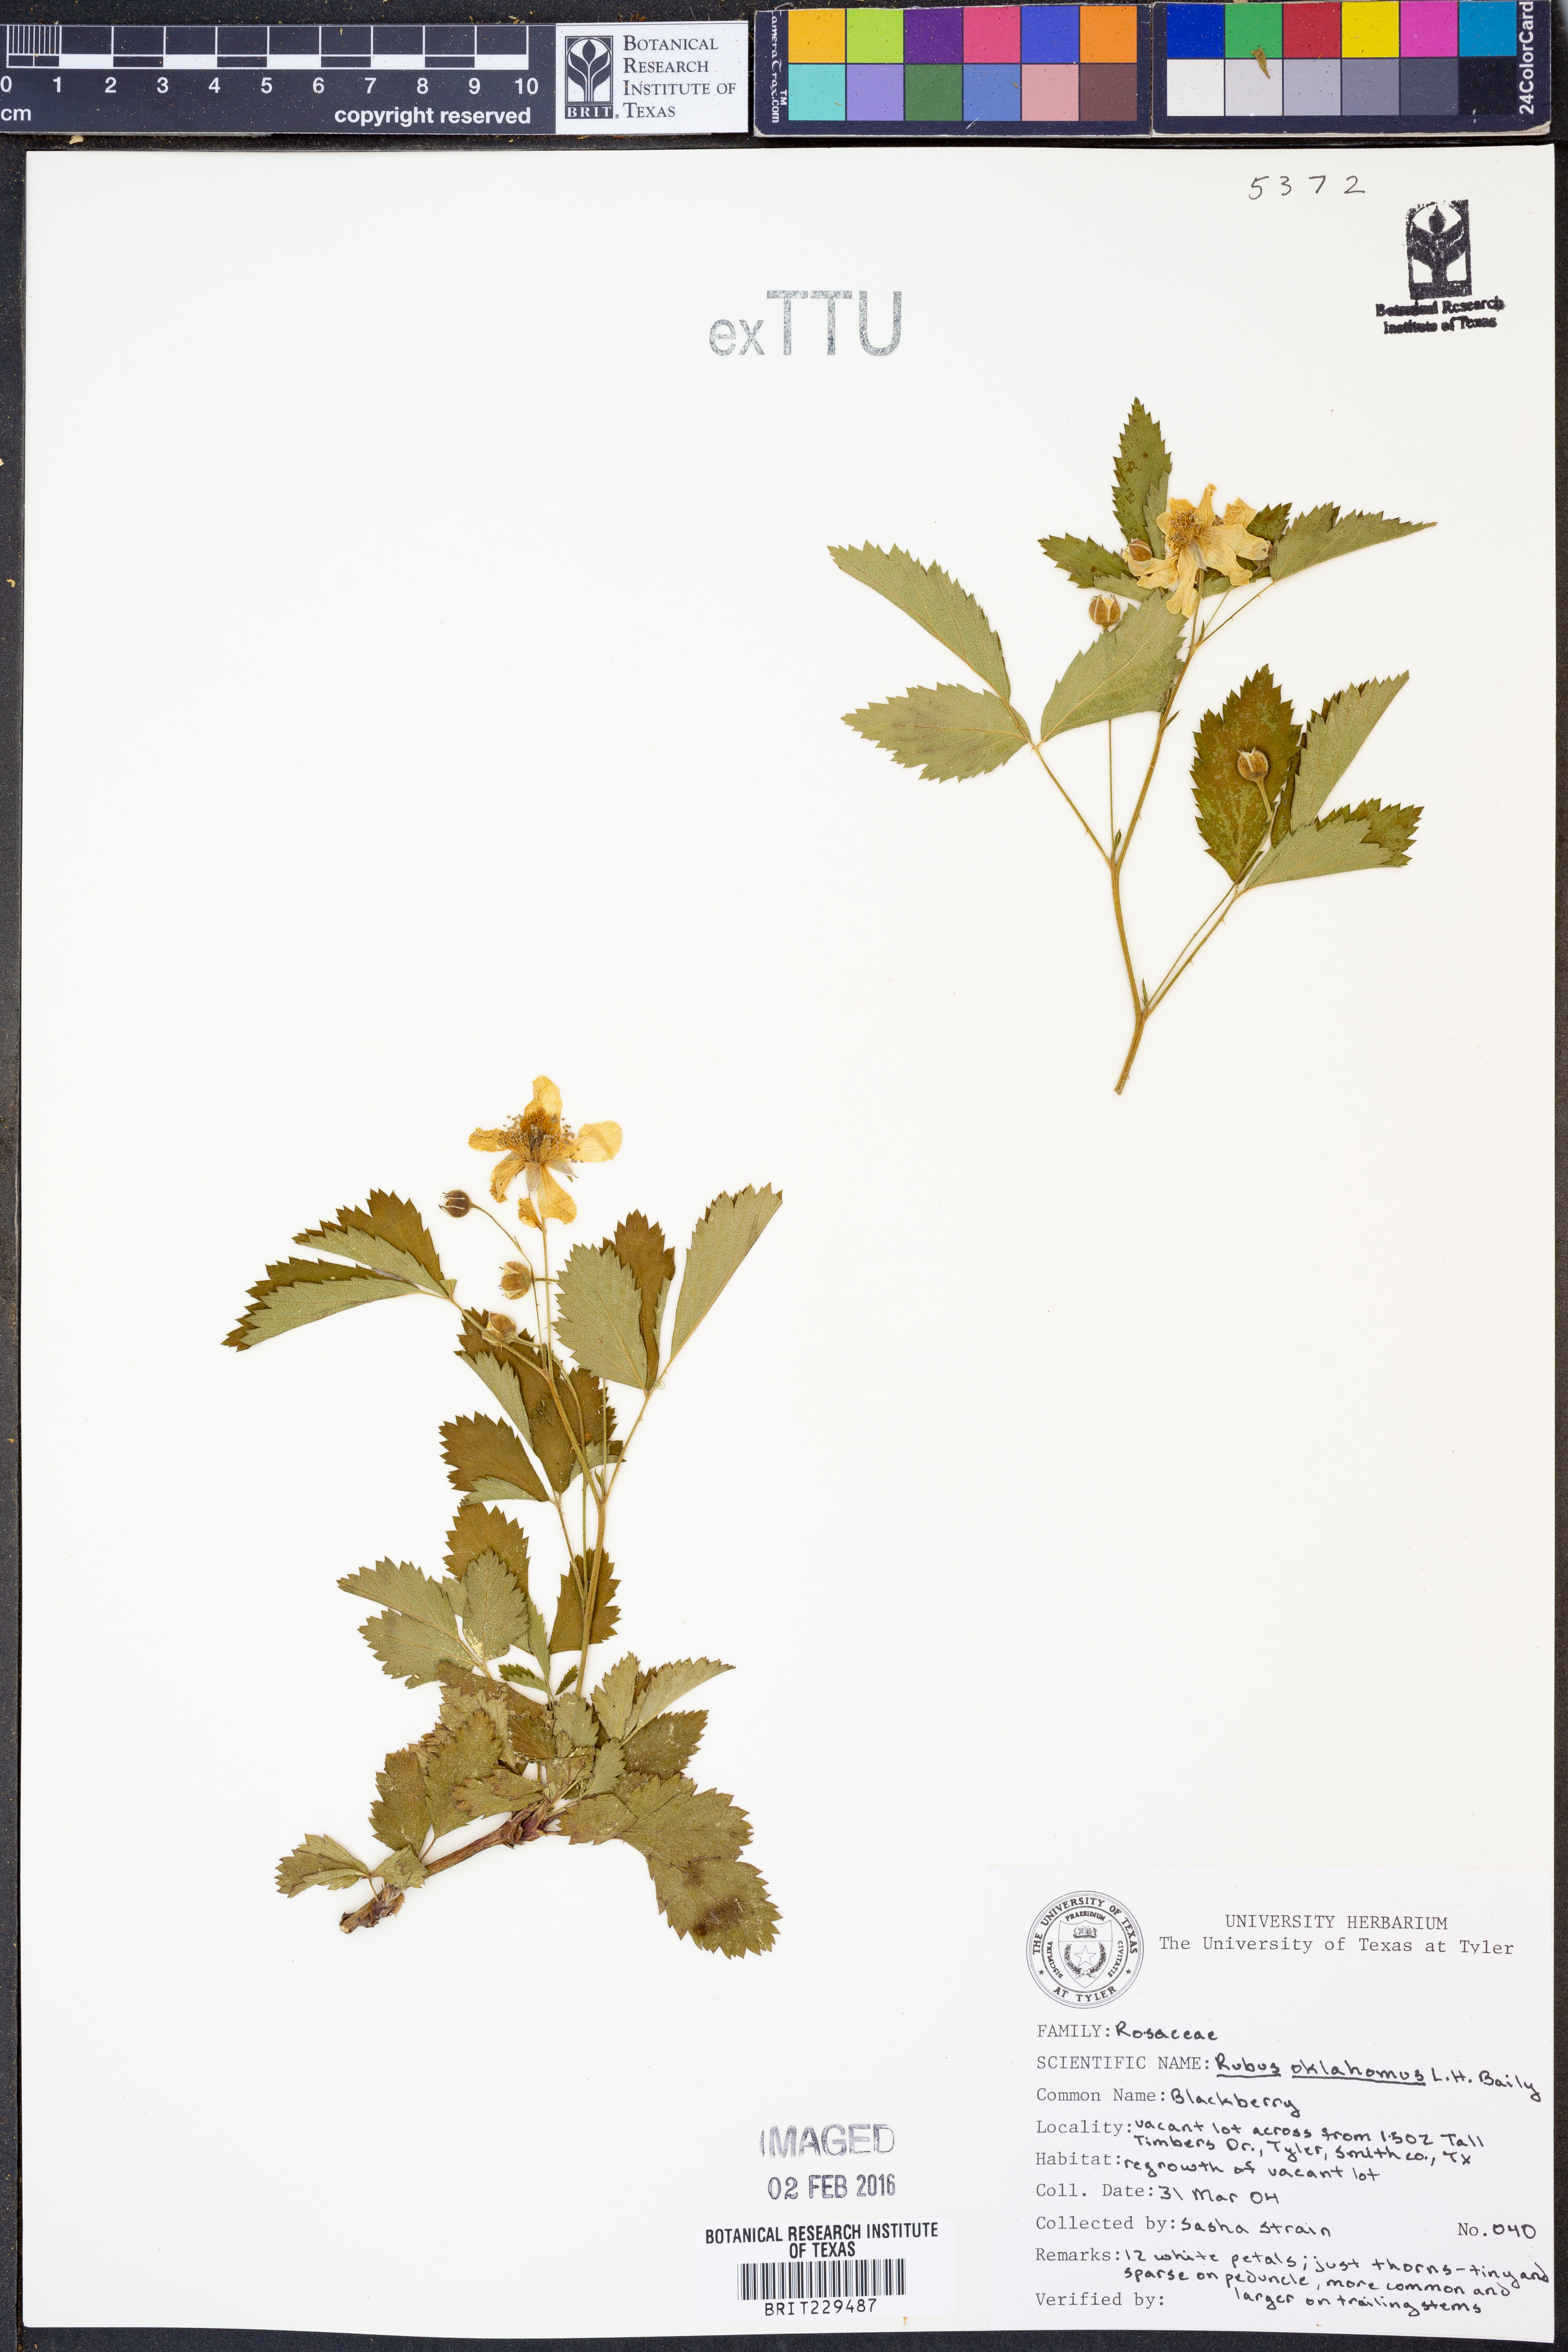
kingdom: Plantae
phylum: Tracheophyta
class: Magnoliopsida
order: Rosales
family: Rosaceae
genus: Rubus
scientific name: Rubus oklahomus
